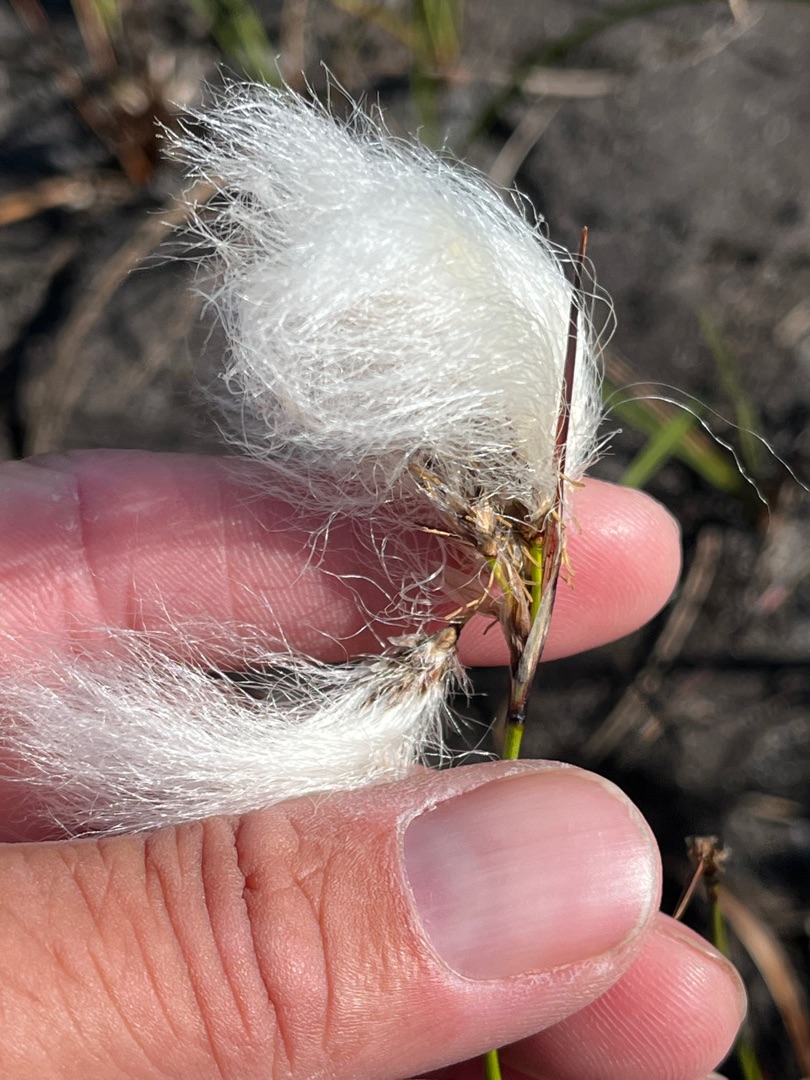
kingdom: Plantae
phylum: Tracheophyta
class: Liliopsida
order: Poales
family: Cyperaceae
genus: Eriophorum
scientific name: Eriophorum angustifolium
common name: Smalbladet kæruld
